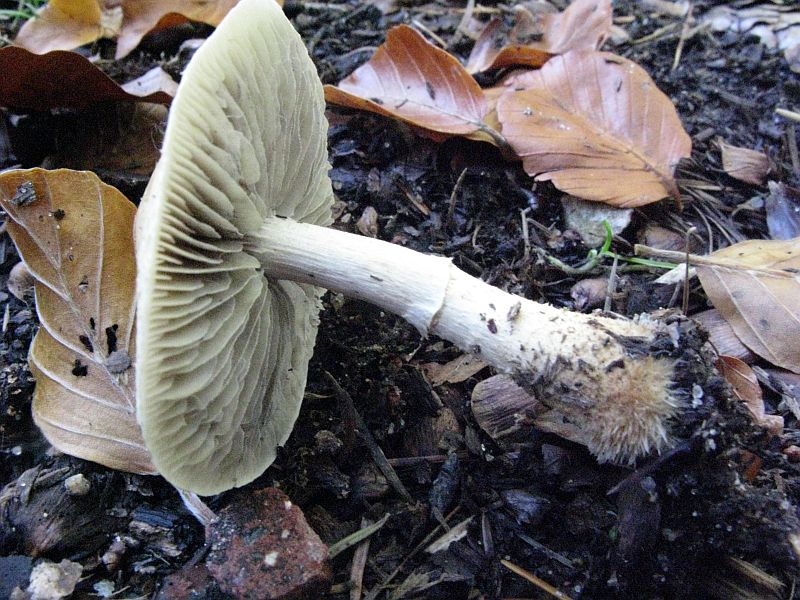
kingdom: Fungi
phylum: Basidiomycota
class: Agaricomycetes
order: Agaricales
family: Strophariaceae
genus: Leratiomyces
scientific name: Leratiomyces percevalii
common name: træflis-bredblad
